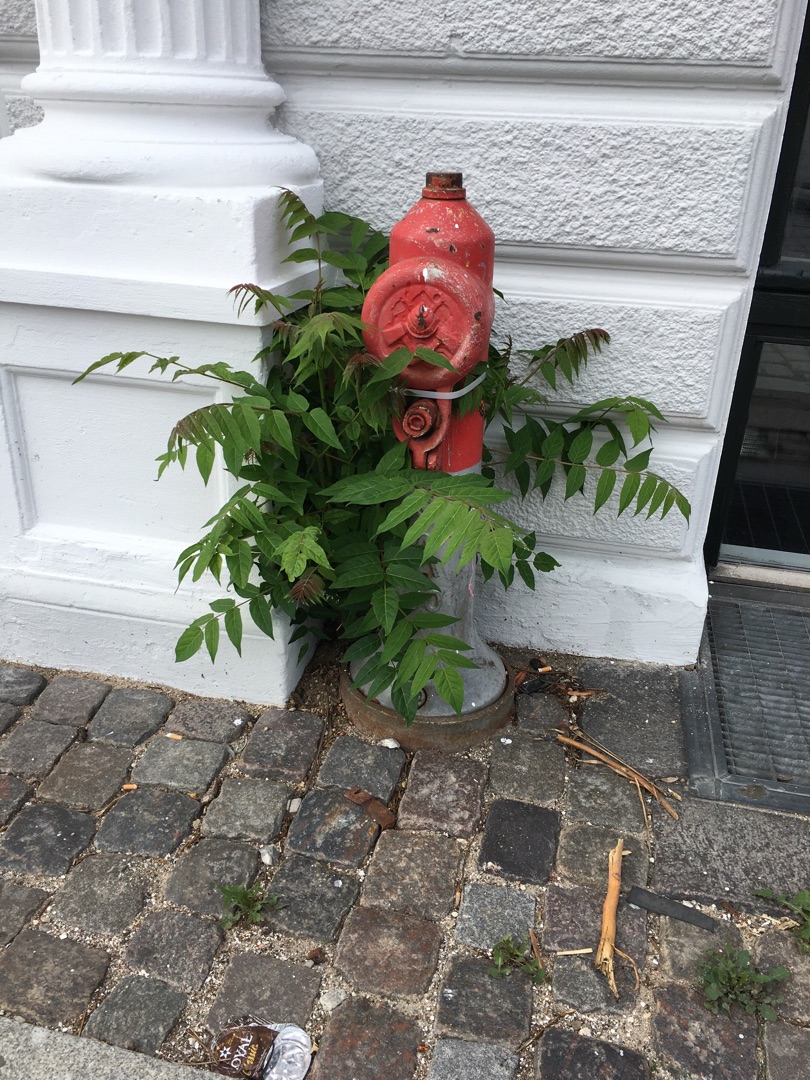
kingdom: Plantae
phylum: Tracheophyta
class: Magnoliopsida
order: Sapindales
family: Simaroubaceae
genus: Ailanthus
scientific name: Ailanthus altissima
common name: Skyrækker
